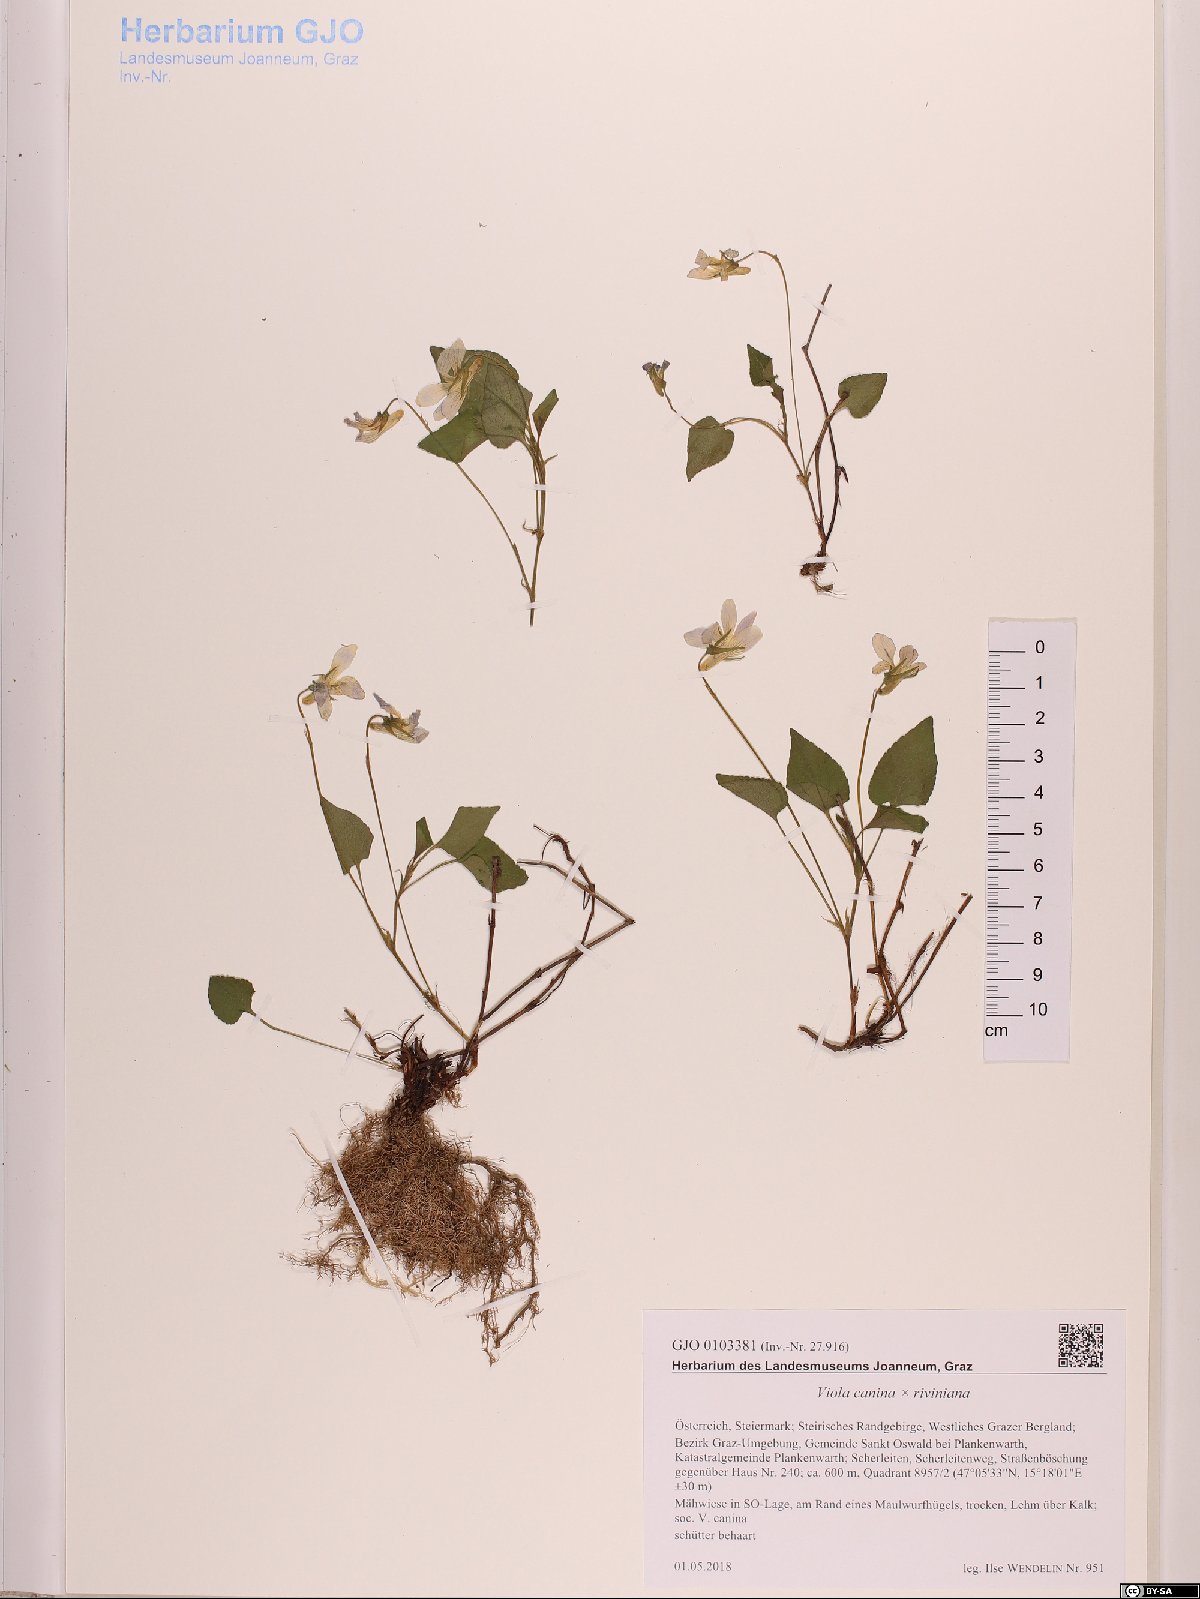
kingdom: Plantae
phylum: Tracheophyta
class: Magnoliopsida
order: Malpighiales
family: Violaceae
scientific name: Violaceae
